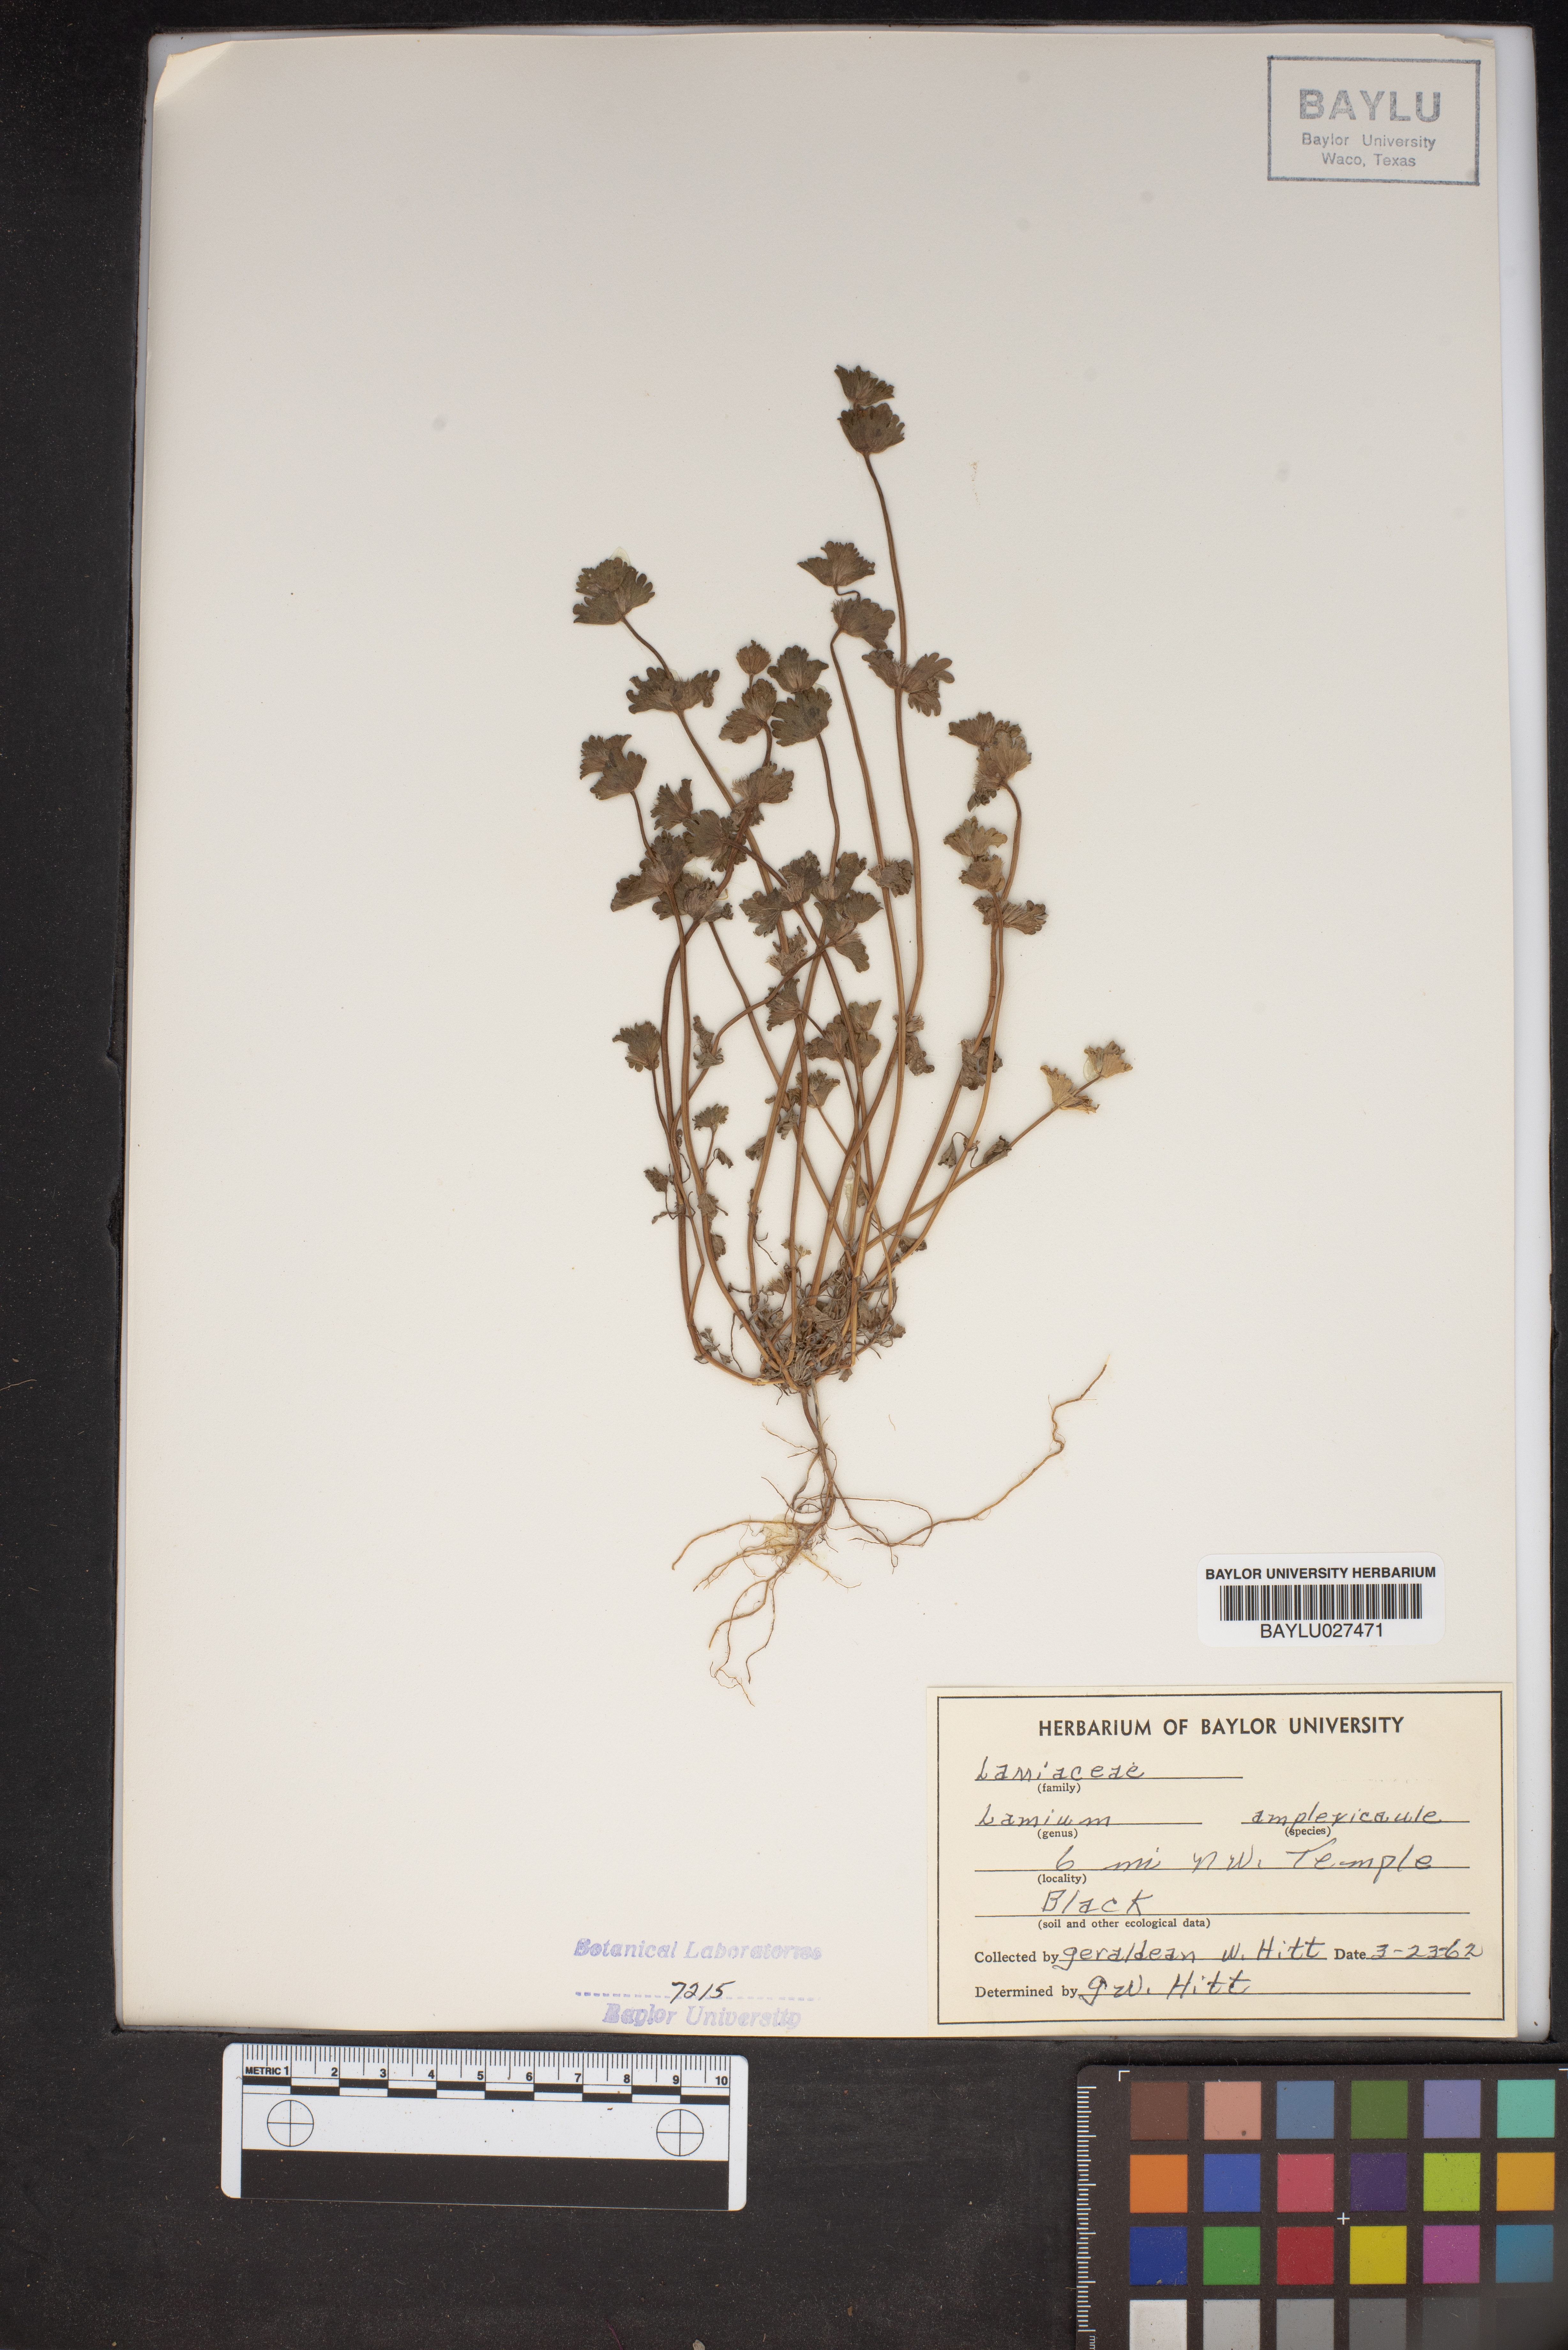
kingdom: Plantae
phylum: Tracheophyta
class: Magnoliopsida
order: Lamiales
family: Lamiaceae
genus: Lamium
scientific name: Lamium amplexicaule
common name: Henbit dead-nettle
